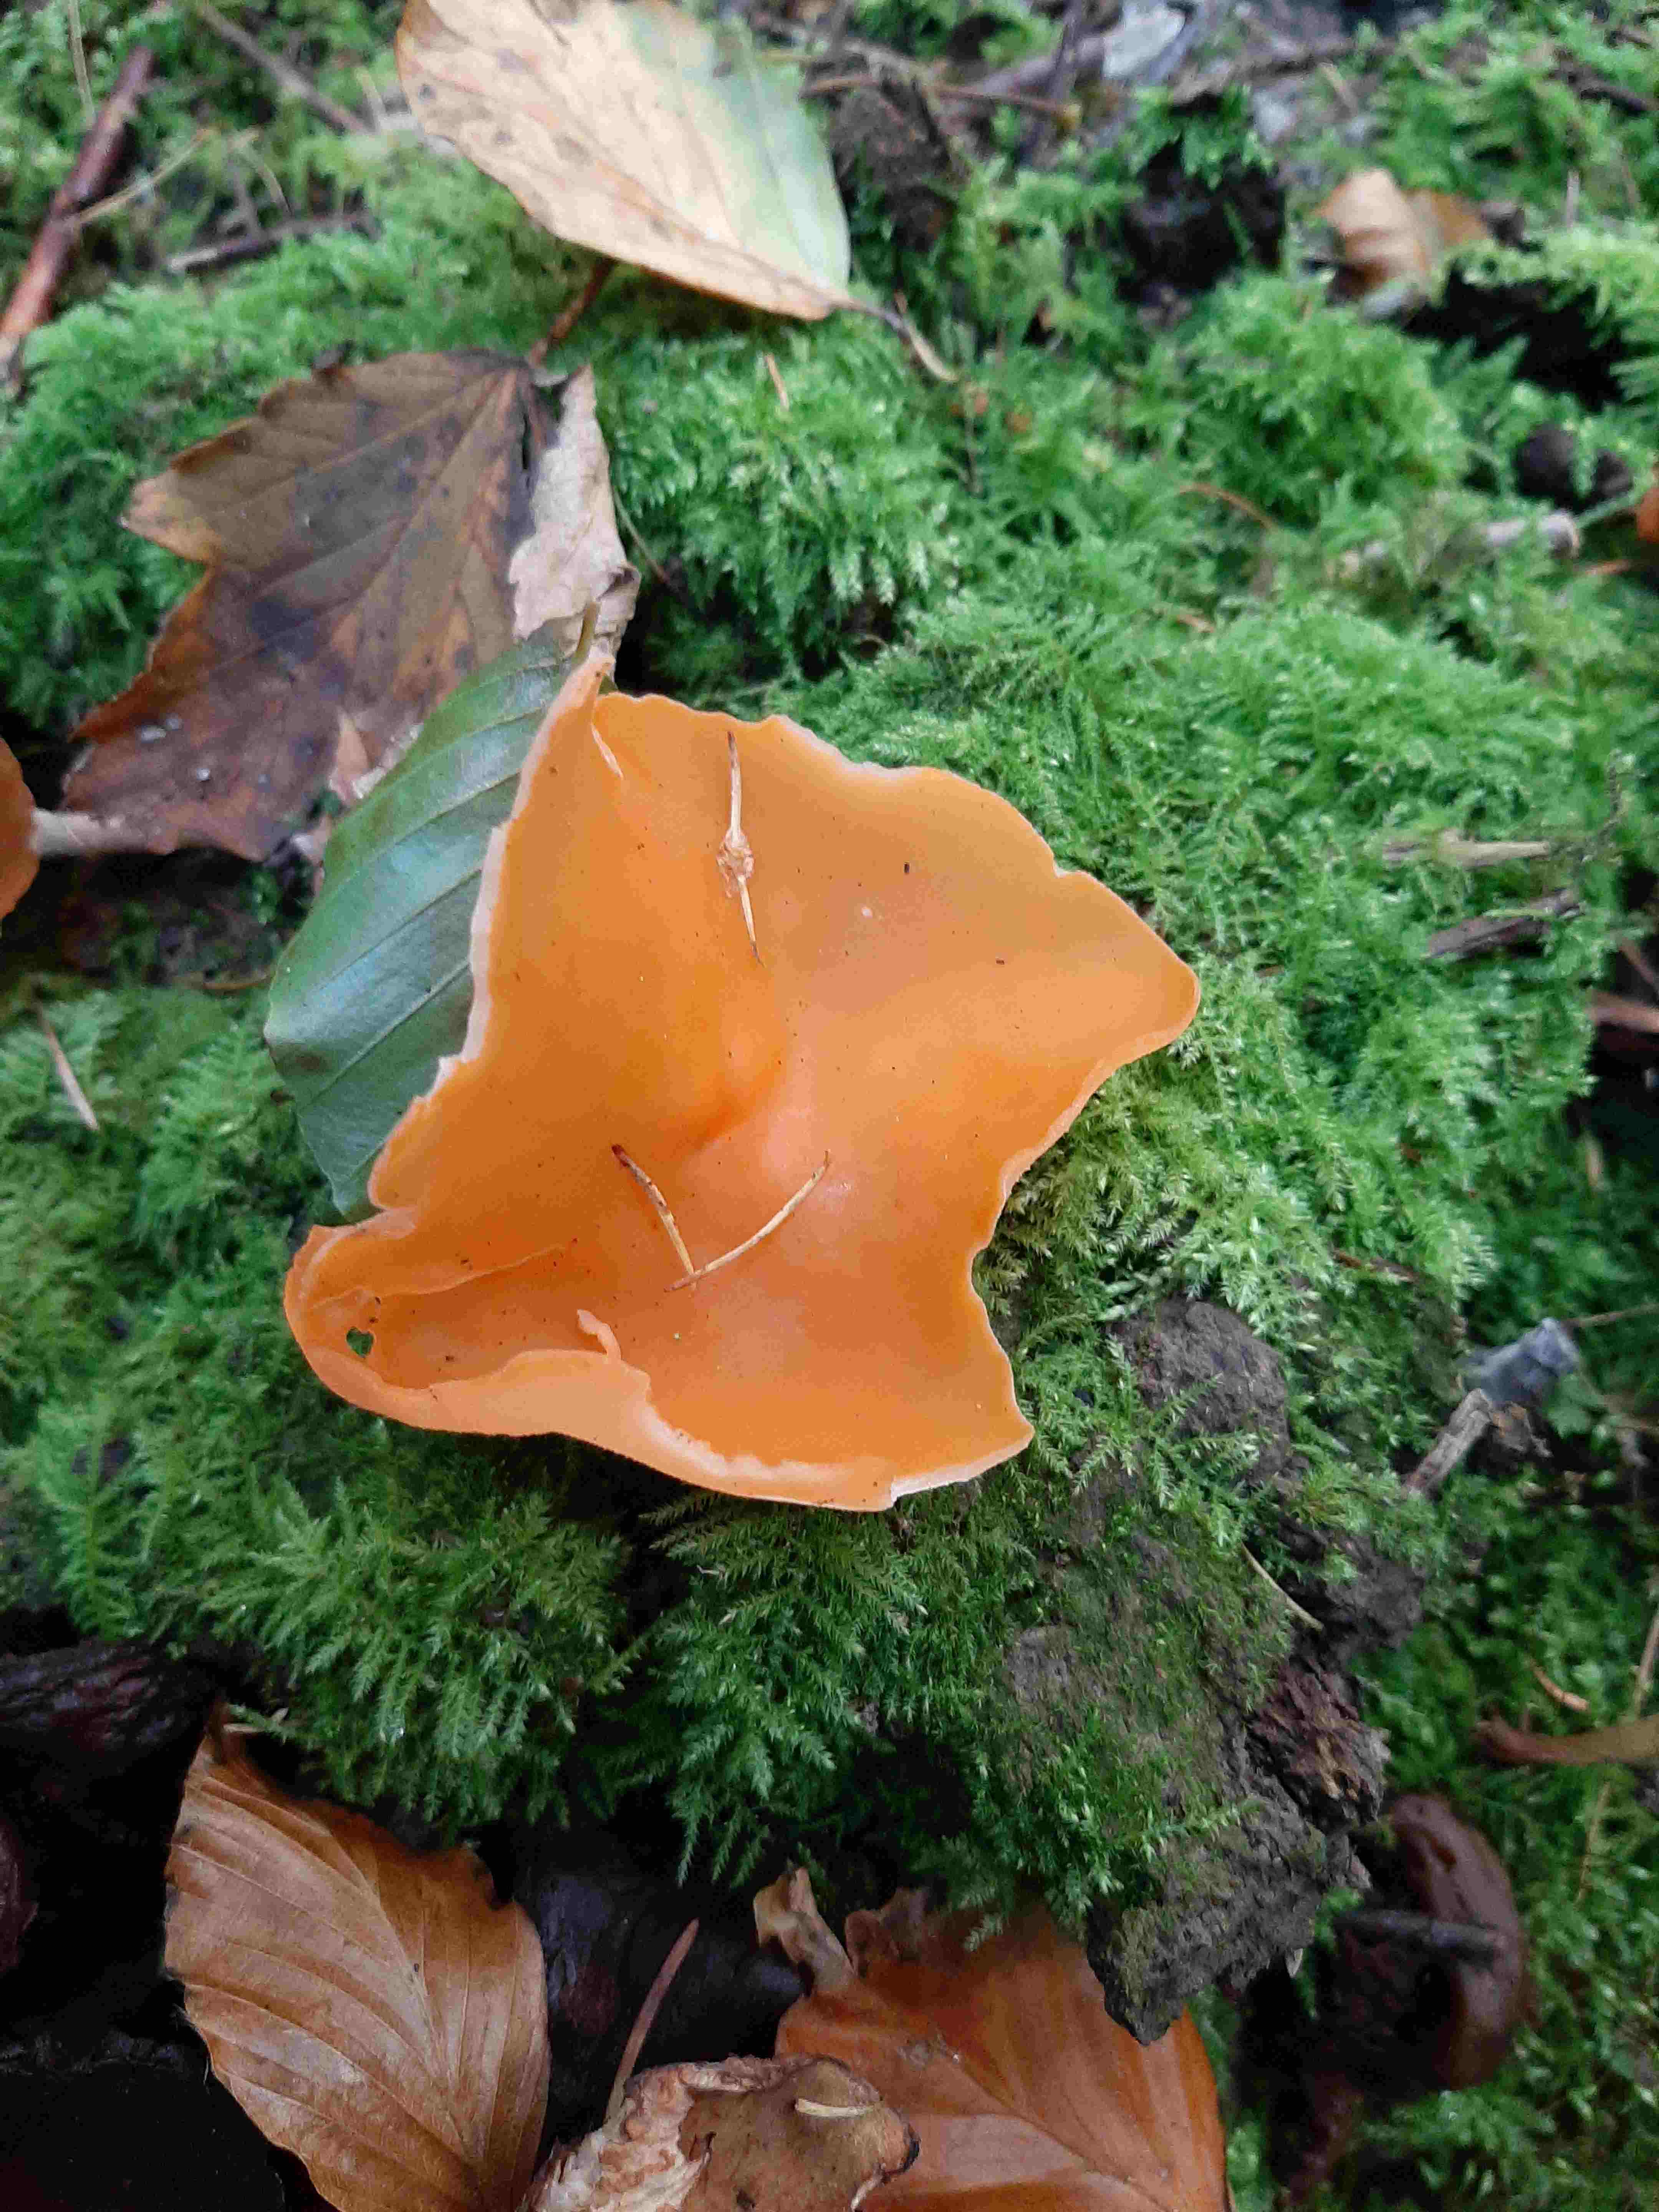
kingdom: Fungi
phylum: Ascomycota
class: Pezizomycetes
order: Pezizales
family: Pyronemataceae
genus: Aleuria
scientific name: Aleuria aurantia
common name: almindelig orangebæger
